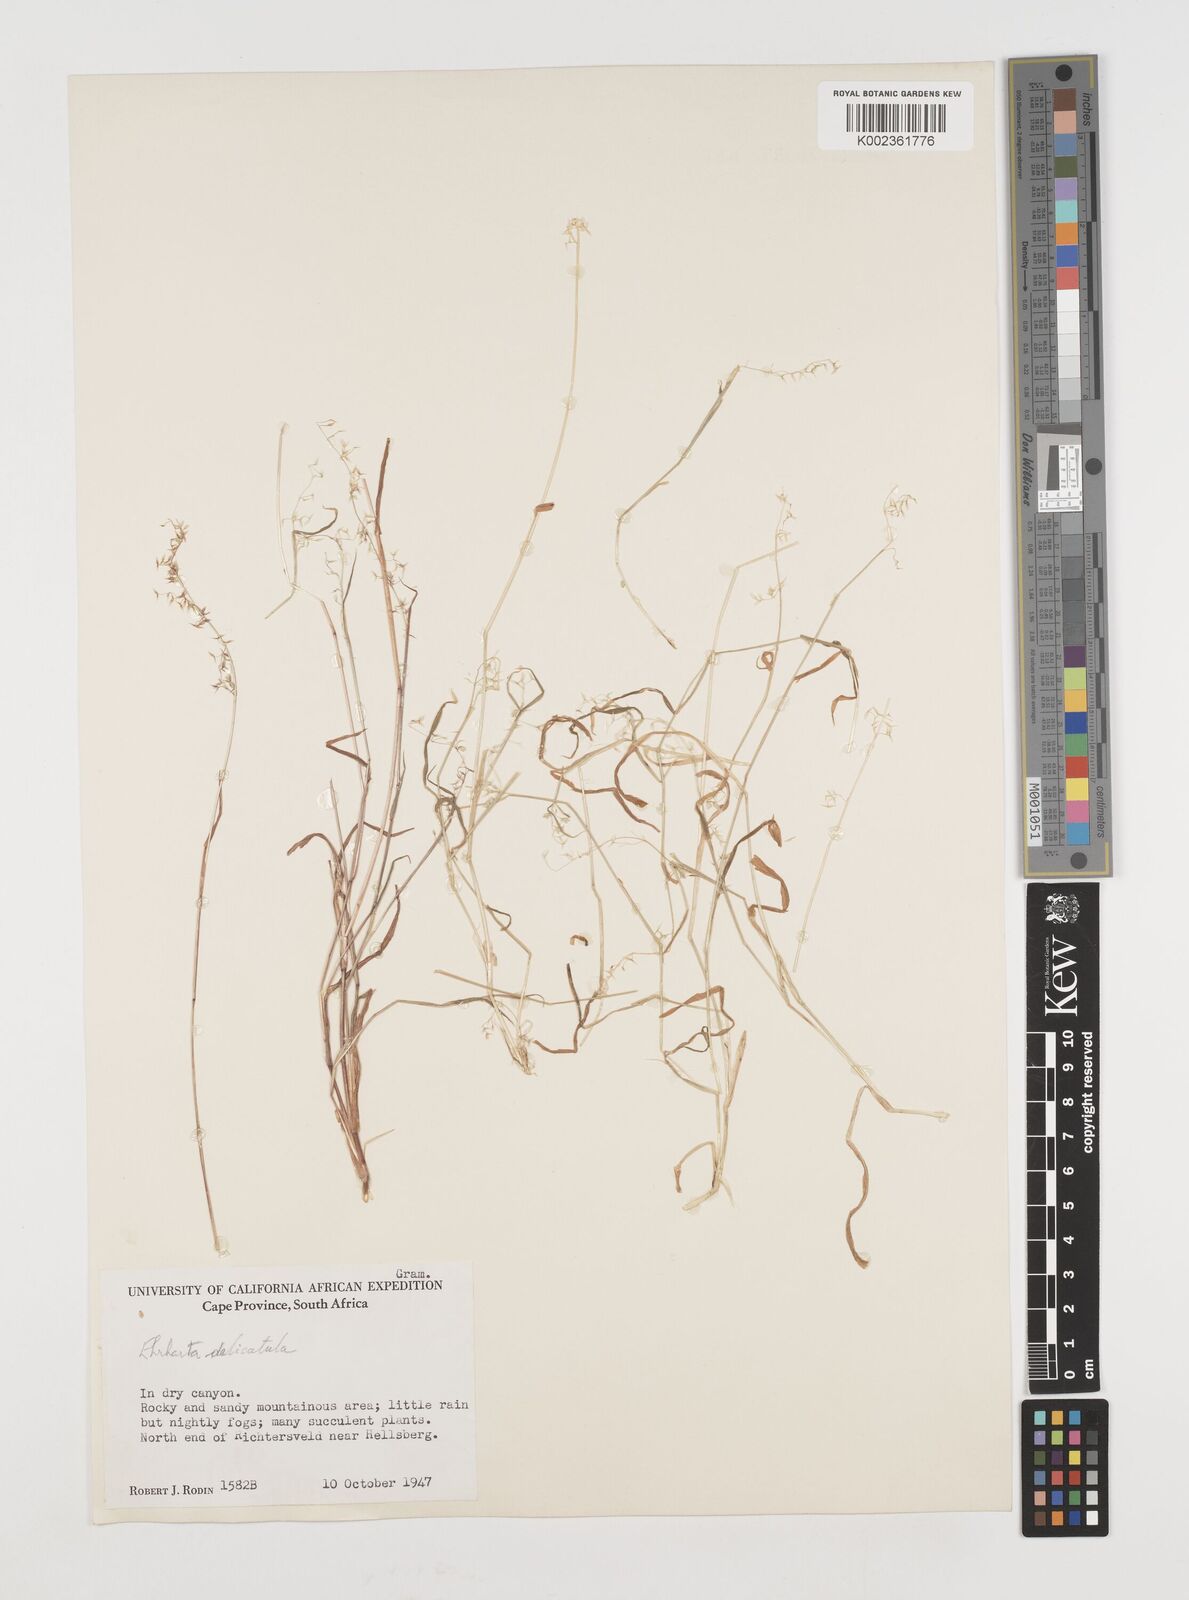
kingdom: Plantae
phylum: Tracheophyta
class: Liliopsida
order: Poales
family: Poaceae
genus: Ehrharta
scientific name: Ehrharta delicatula
